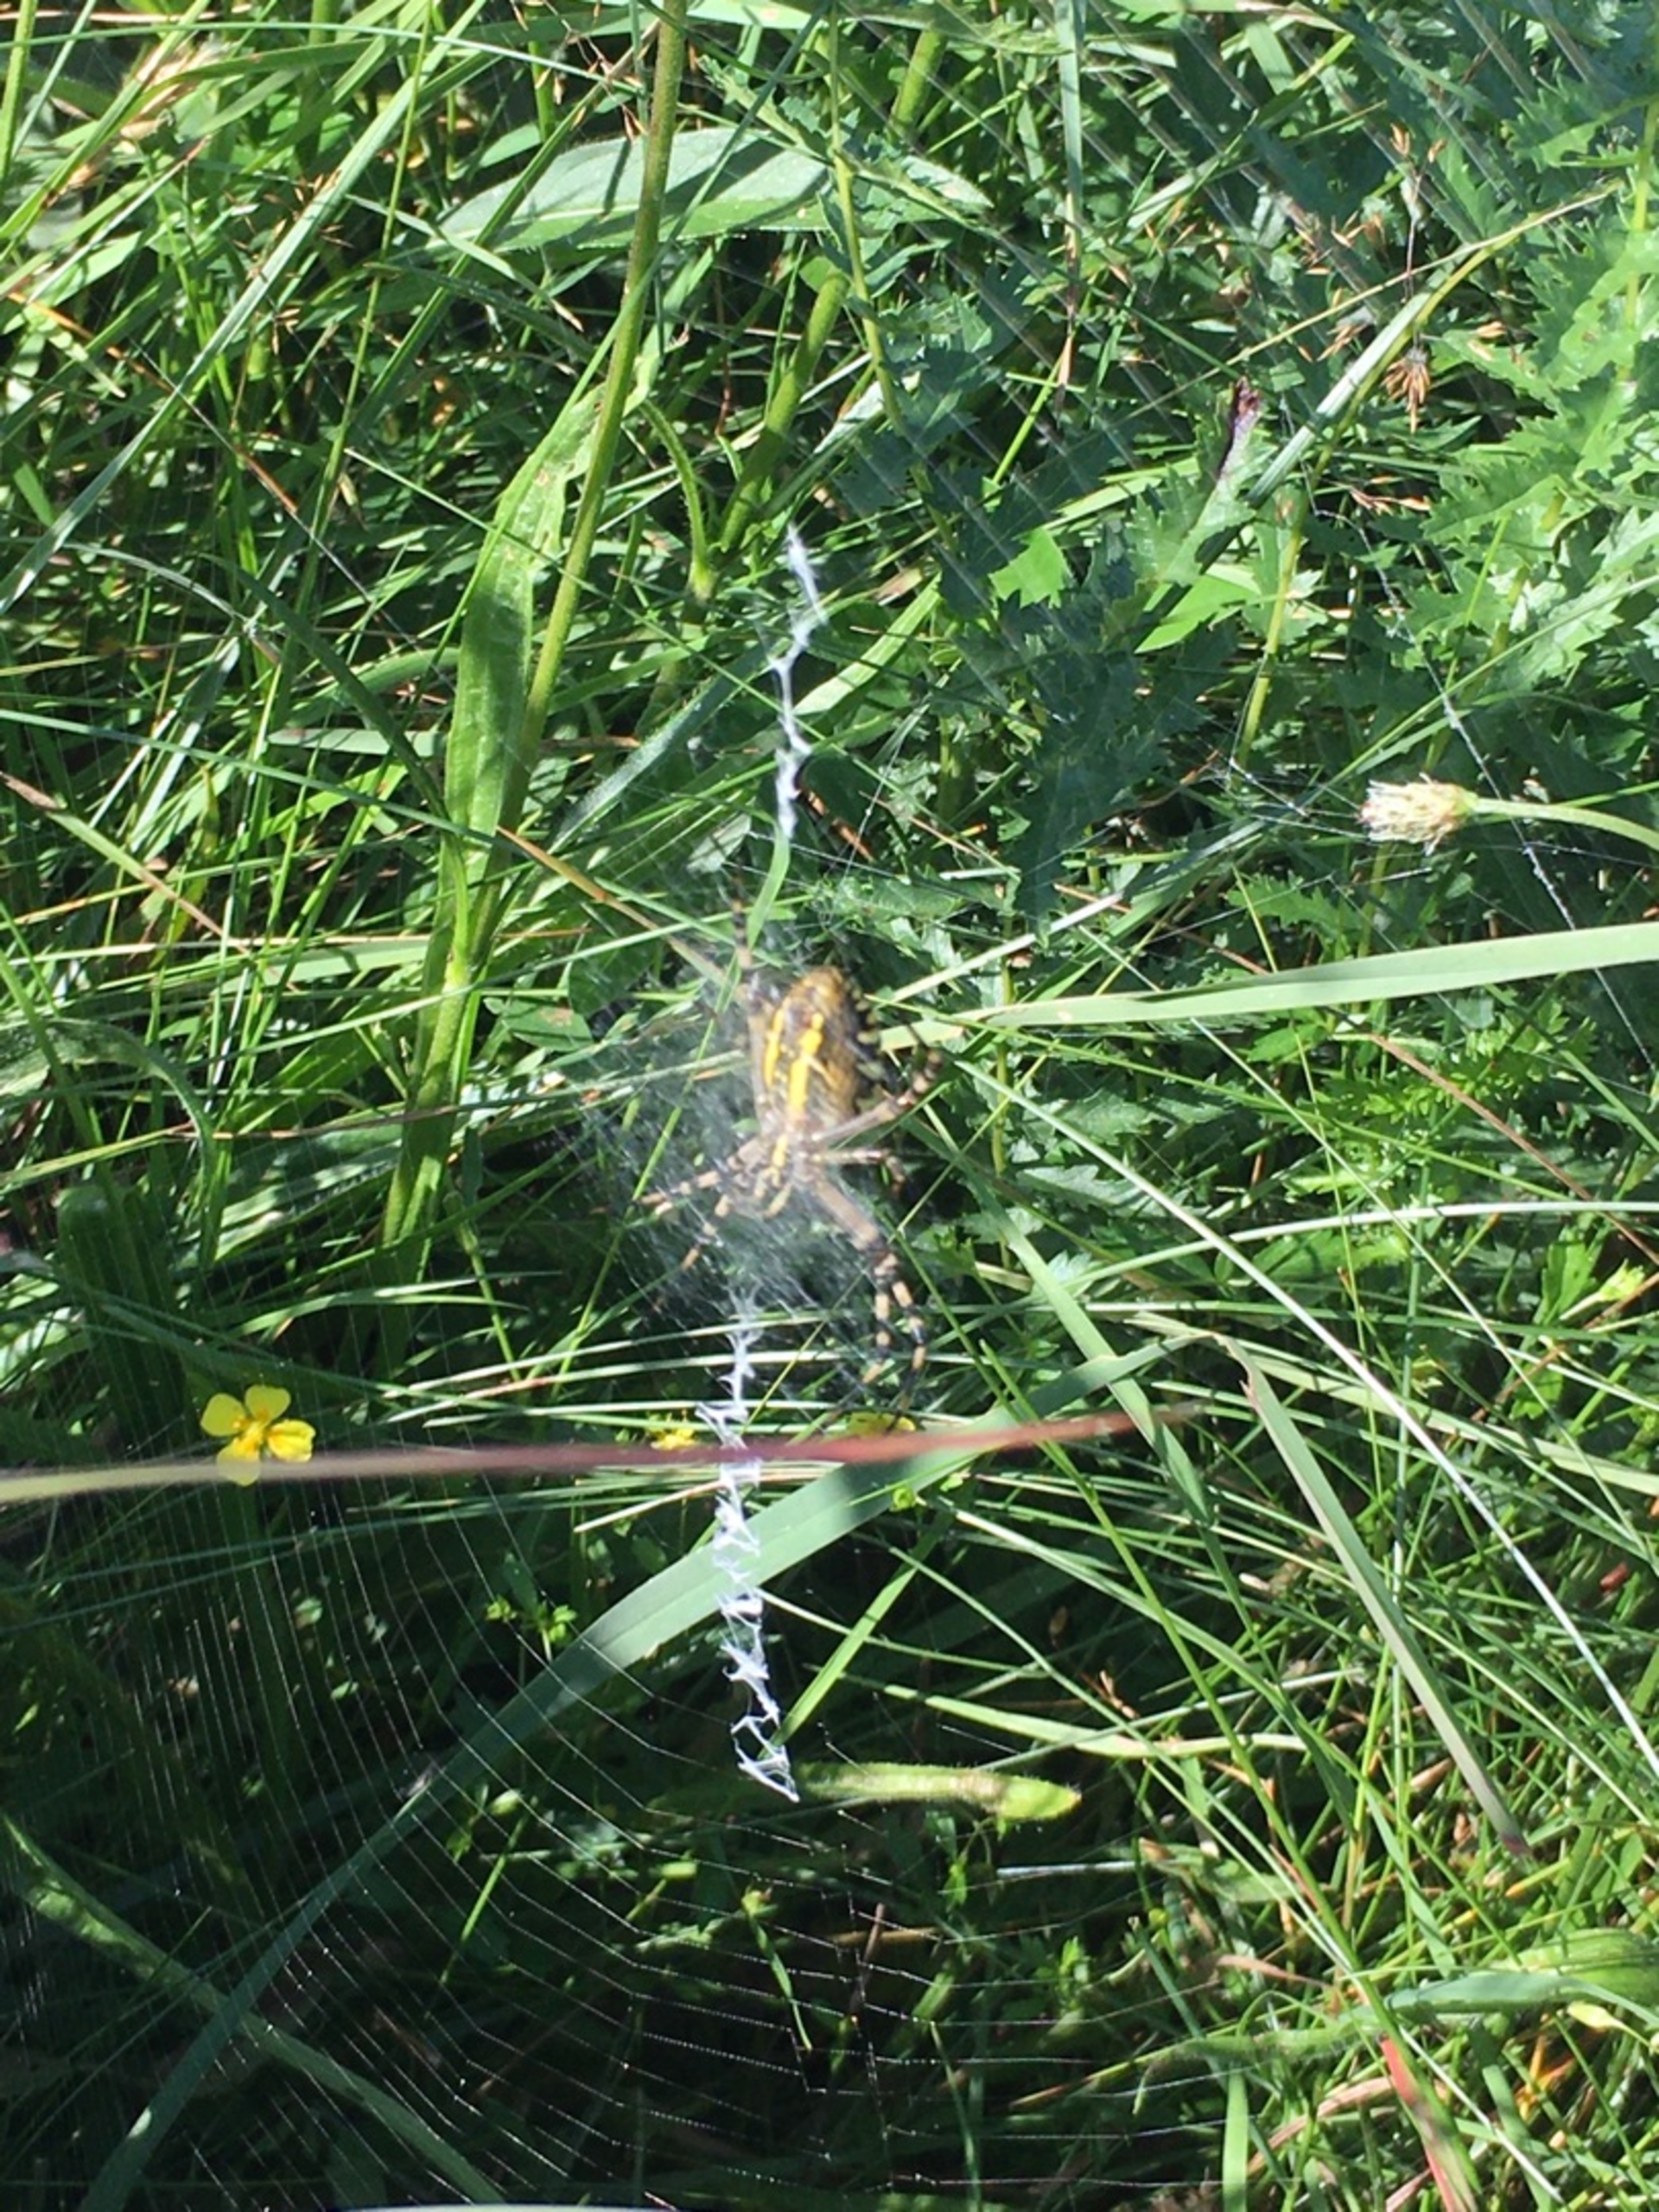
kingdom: Animalia
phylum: Arthropoda
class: Arachnida
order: Araneae
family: Araneidae
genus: Argiope
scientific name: Argiope bruennichi
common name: Hvepseedderkop
